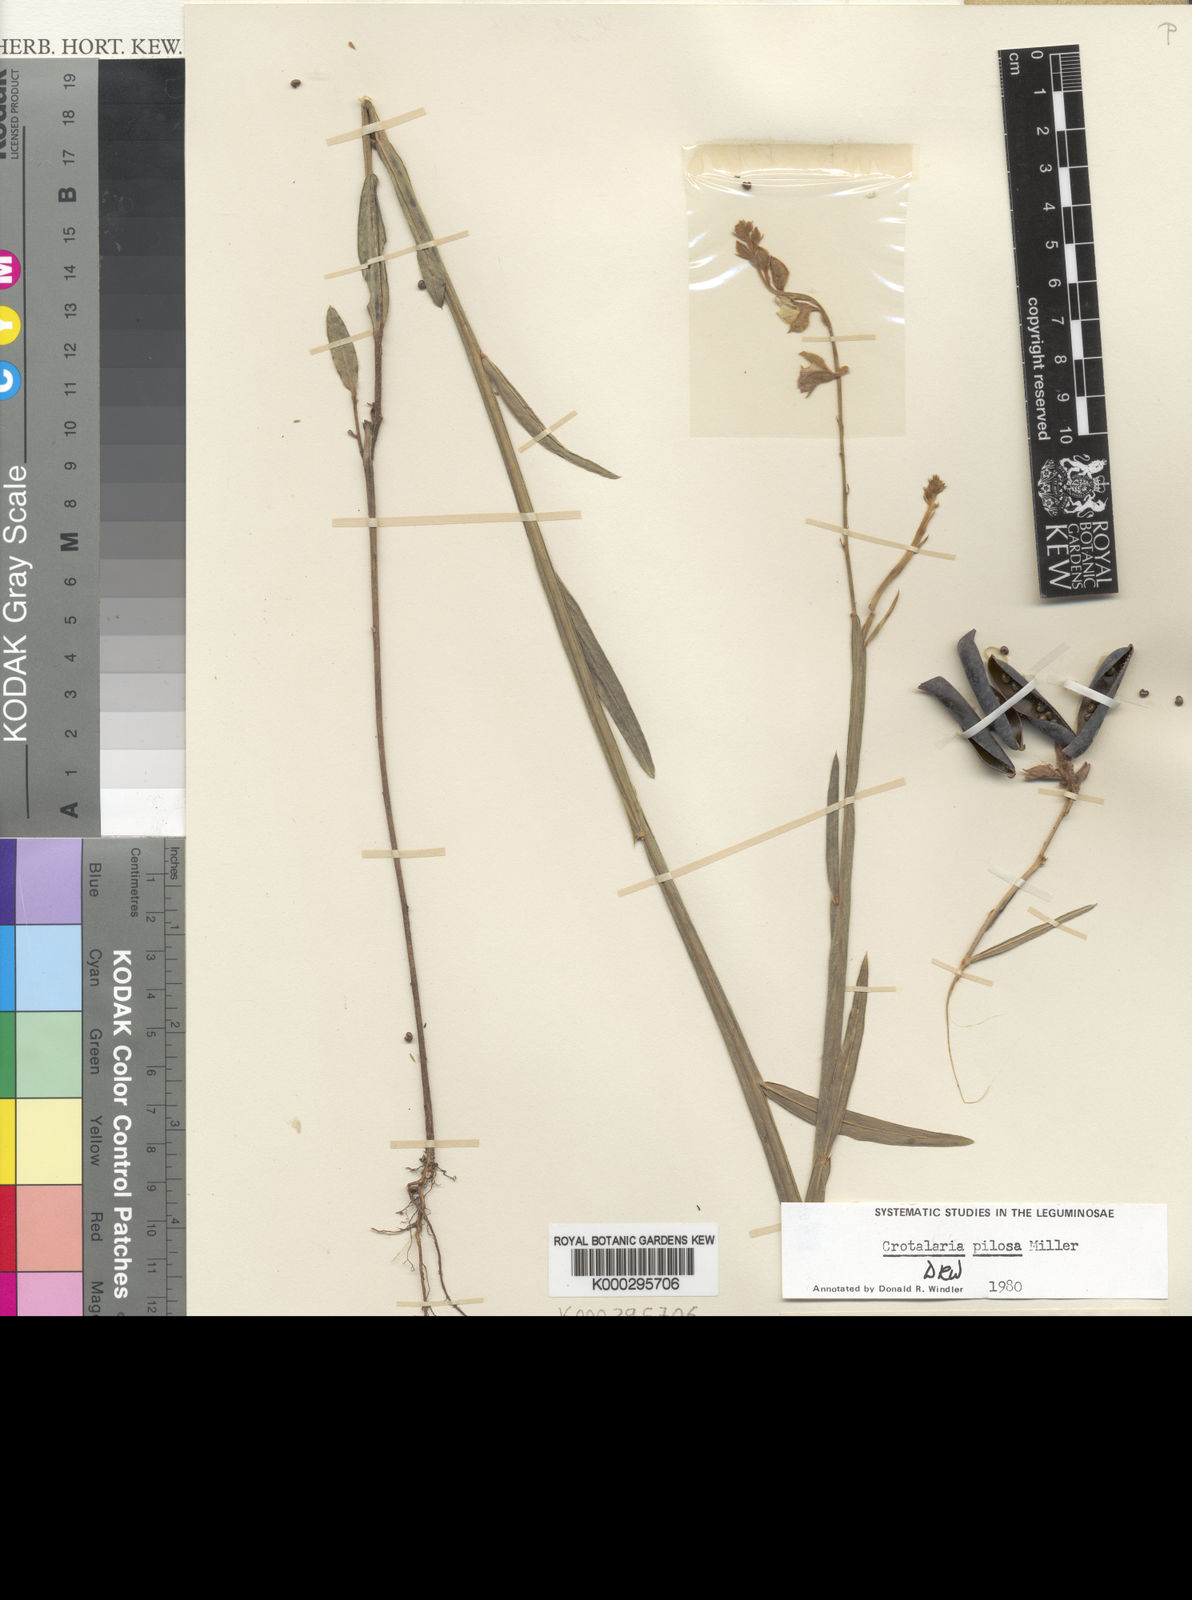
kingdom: Plantae
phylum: Tracheophyta
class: Magnoliopsida
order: Fabales
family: Fabaceae
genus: Crotalaria
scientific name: Crotalaria pilosa
